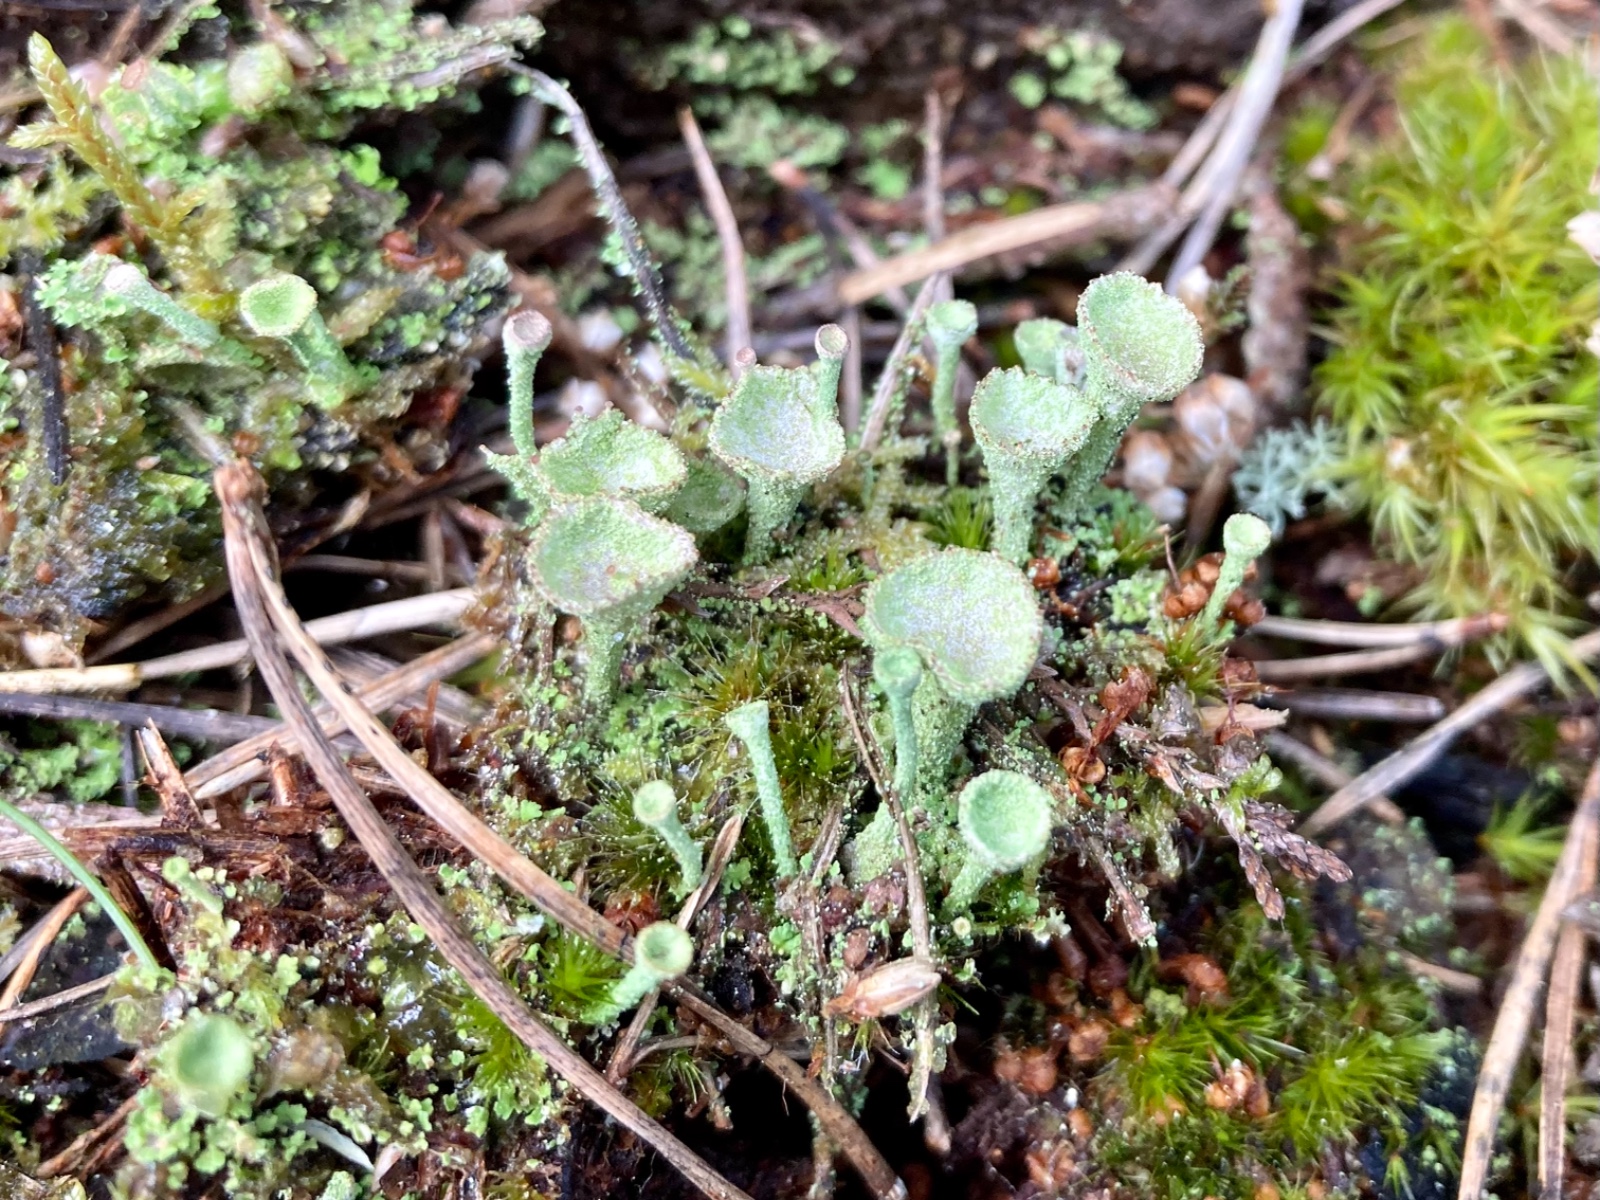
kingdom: Fungi
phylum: Ascomycota
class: Lecanoromycetes
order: Lecanorales
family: Cladoniaceae
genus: Cladonia
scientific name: Cladonia
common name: brungrøn bægerlav
